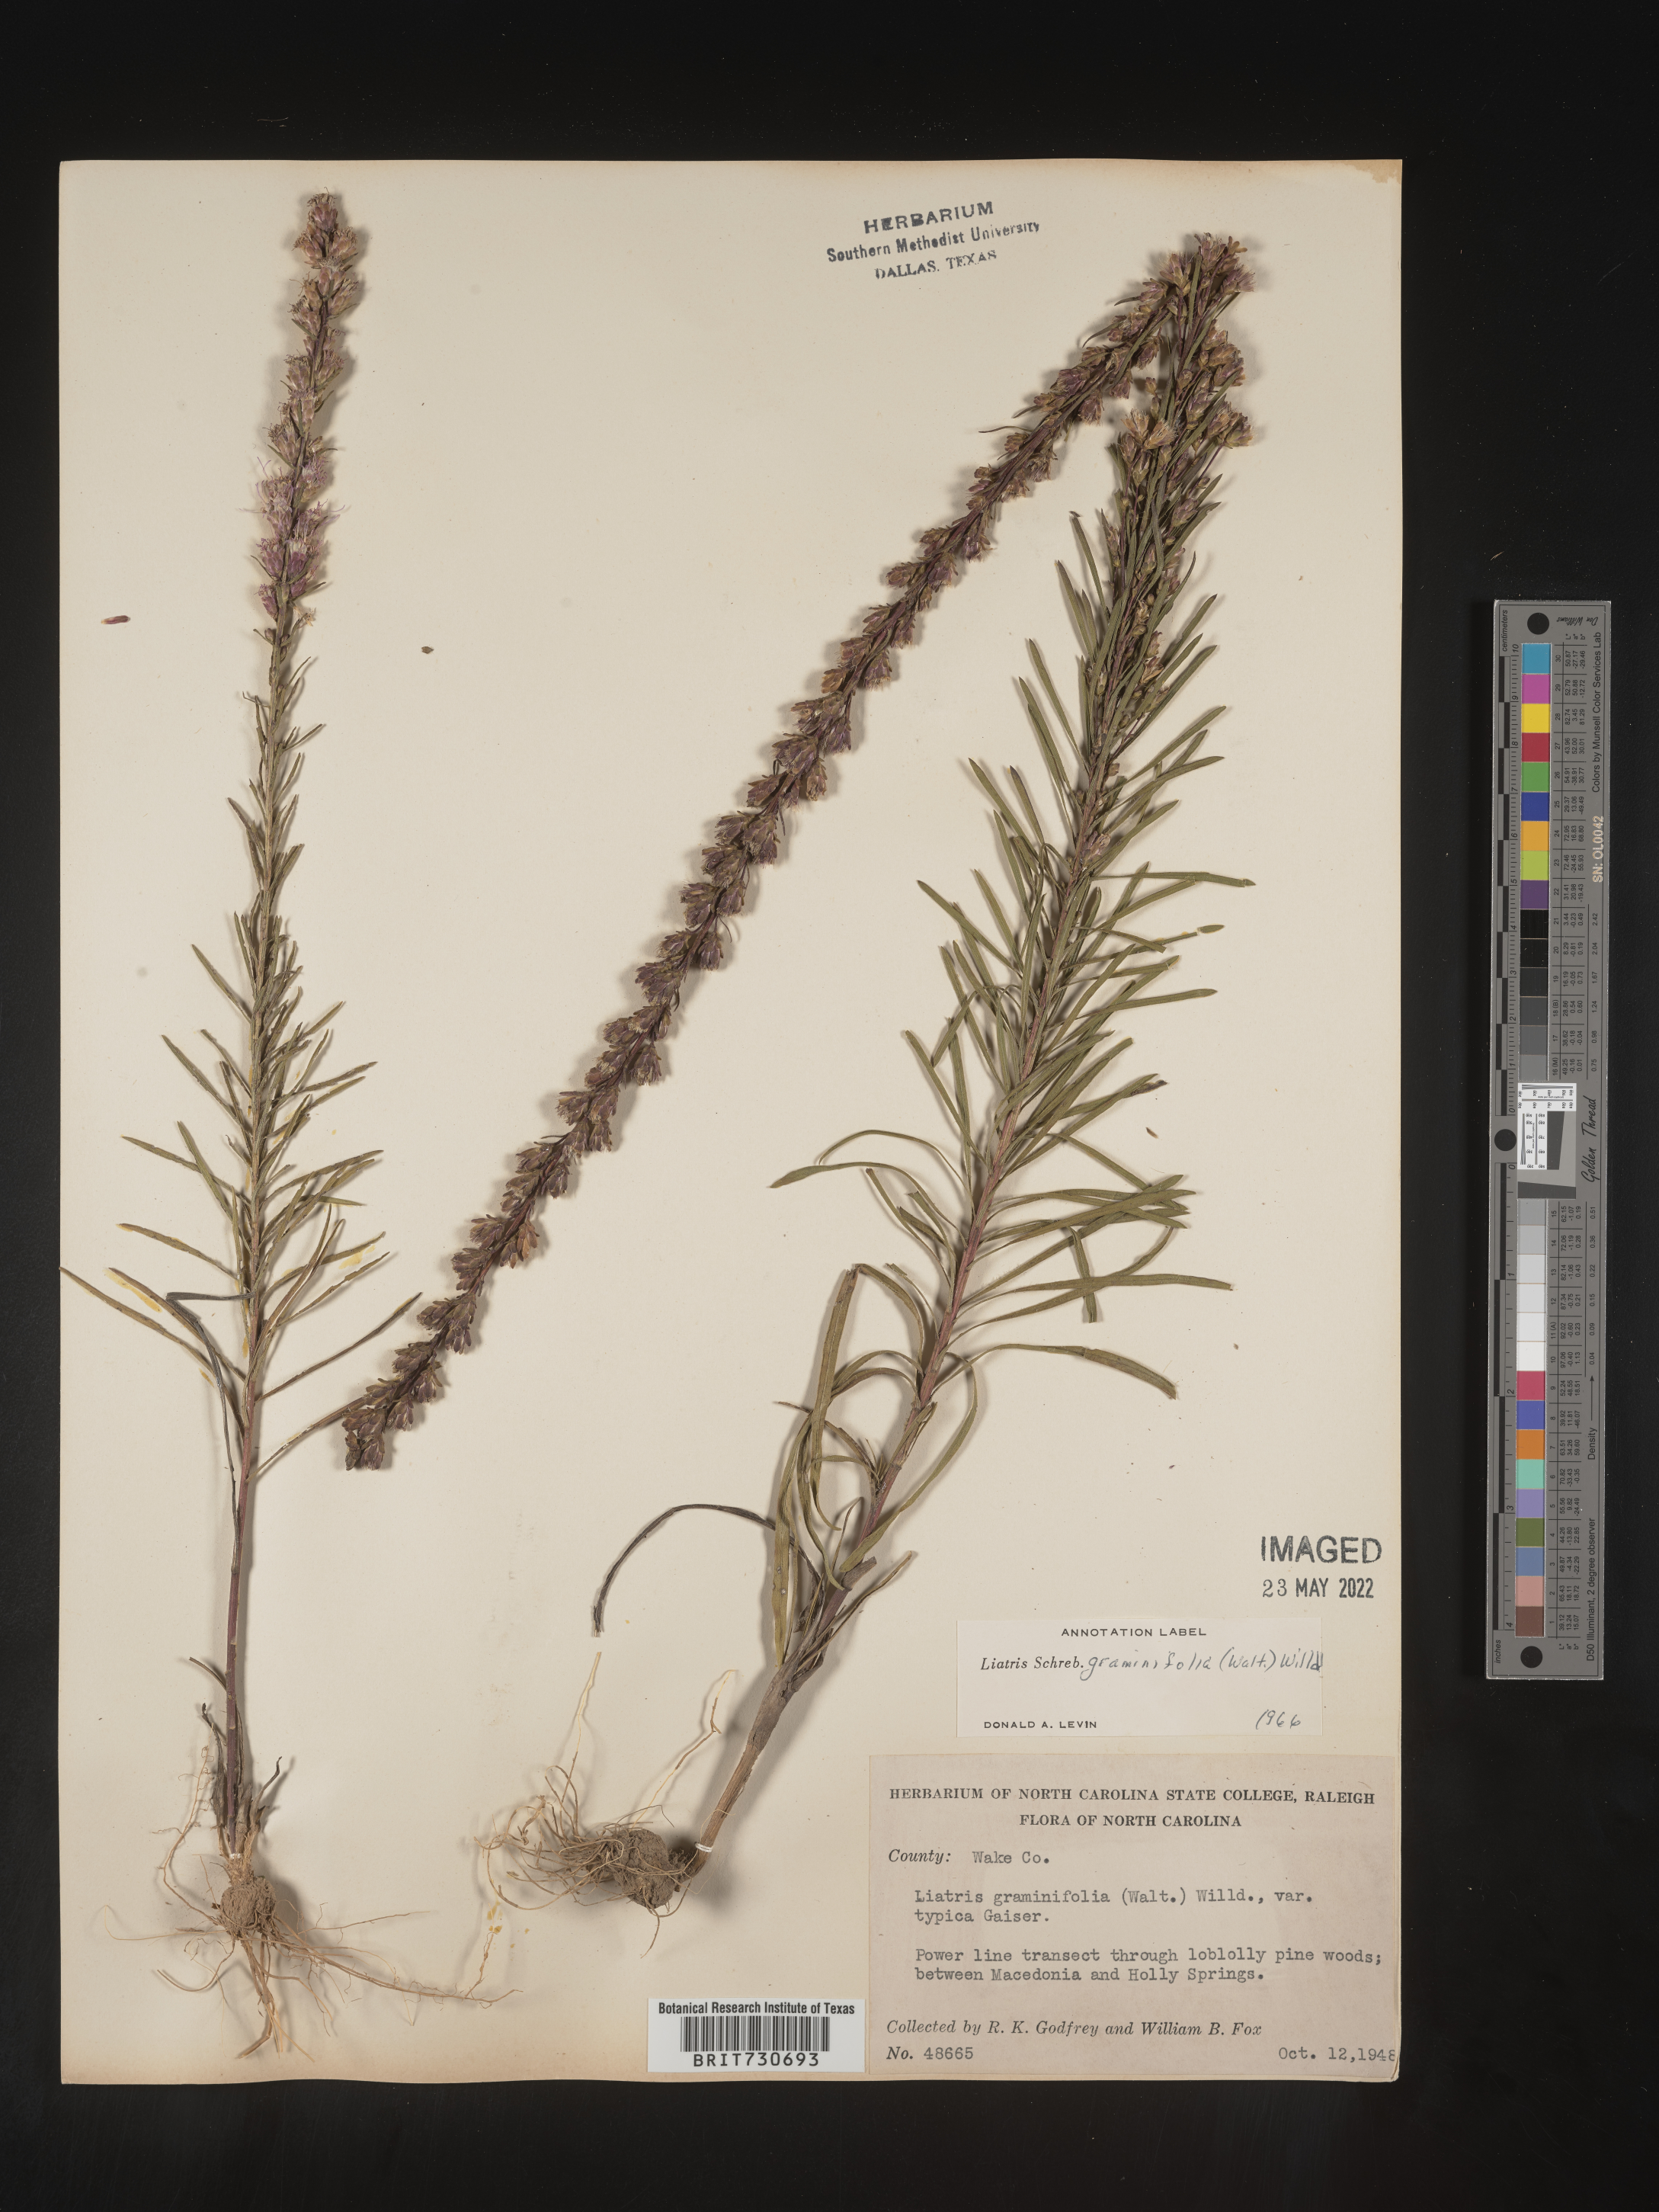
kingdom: Plantae
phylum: Tracheophyta
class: Magnoliopsida
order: Asterales
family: Asteraceae
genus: Liatris
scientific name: Liatris pilosa
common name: Grass-leaf gayfeather
